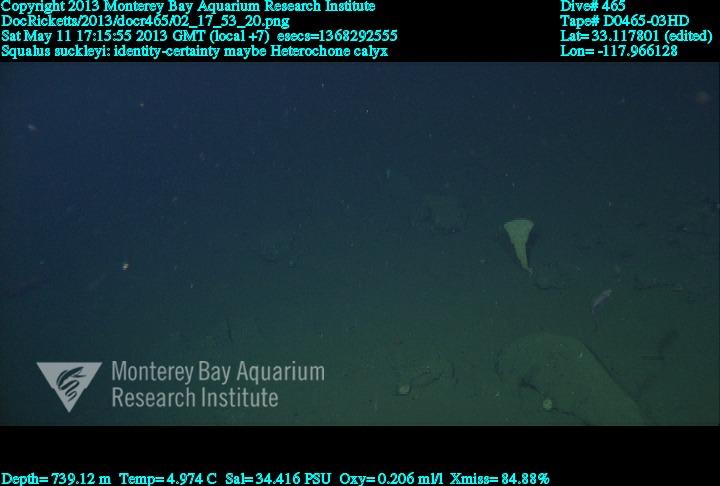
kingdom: Animalia
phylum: Porifera
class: Hexactinellida
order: Sceptrulophora
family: Aphrocallistidae
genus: Heterochone
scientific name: Heterochone calyx
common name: Fingered goblet glass sponge
